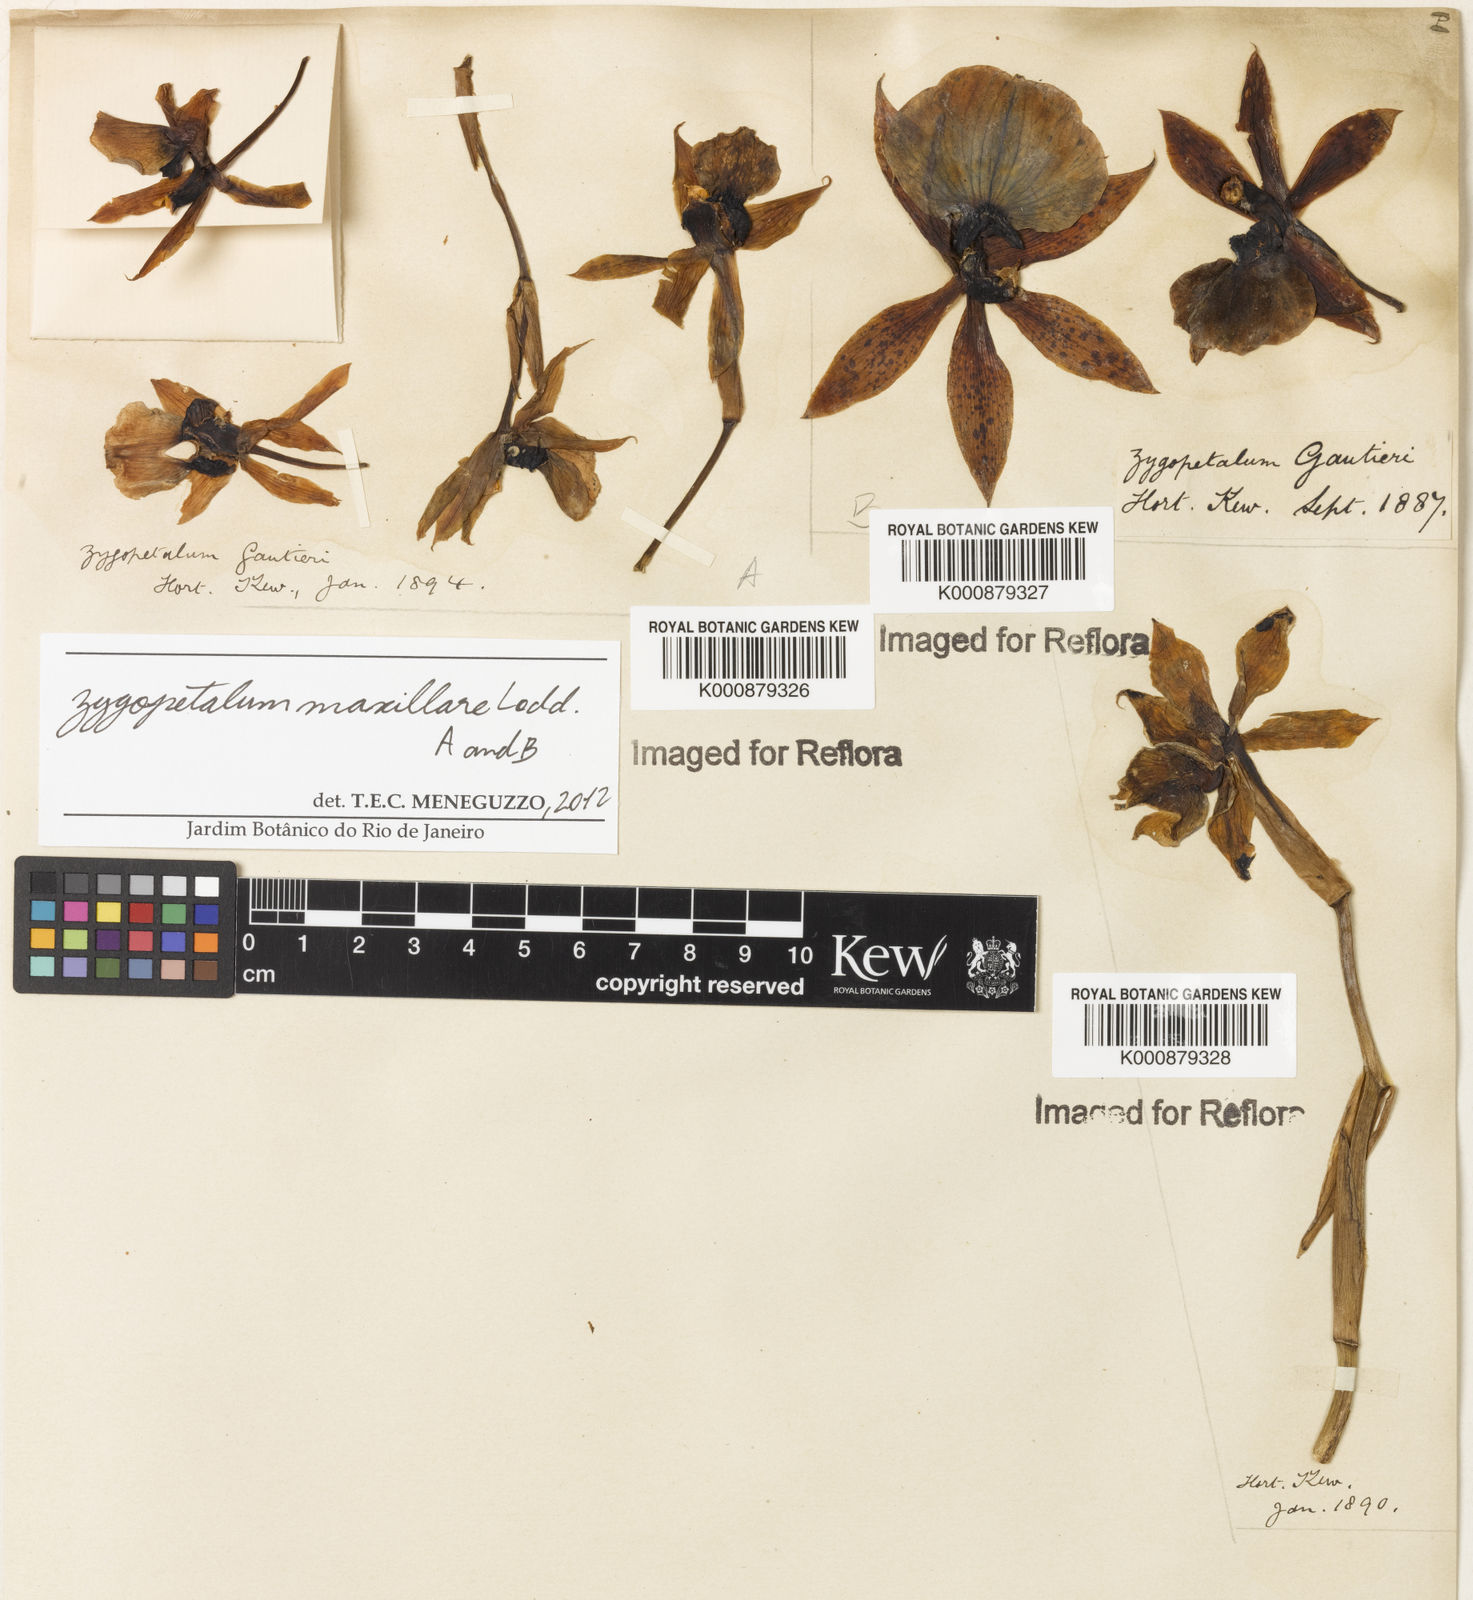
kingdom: Plantae
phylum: Tracheophyta
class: Liliopsida
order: Asparagales
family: Orchidaceae
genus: Zygopetalum
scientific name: Zygopetalum maxillare
